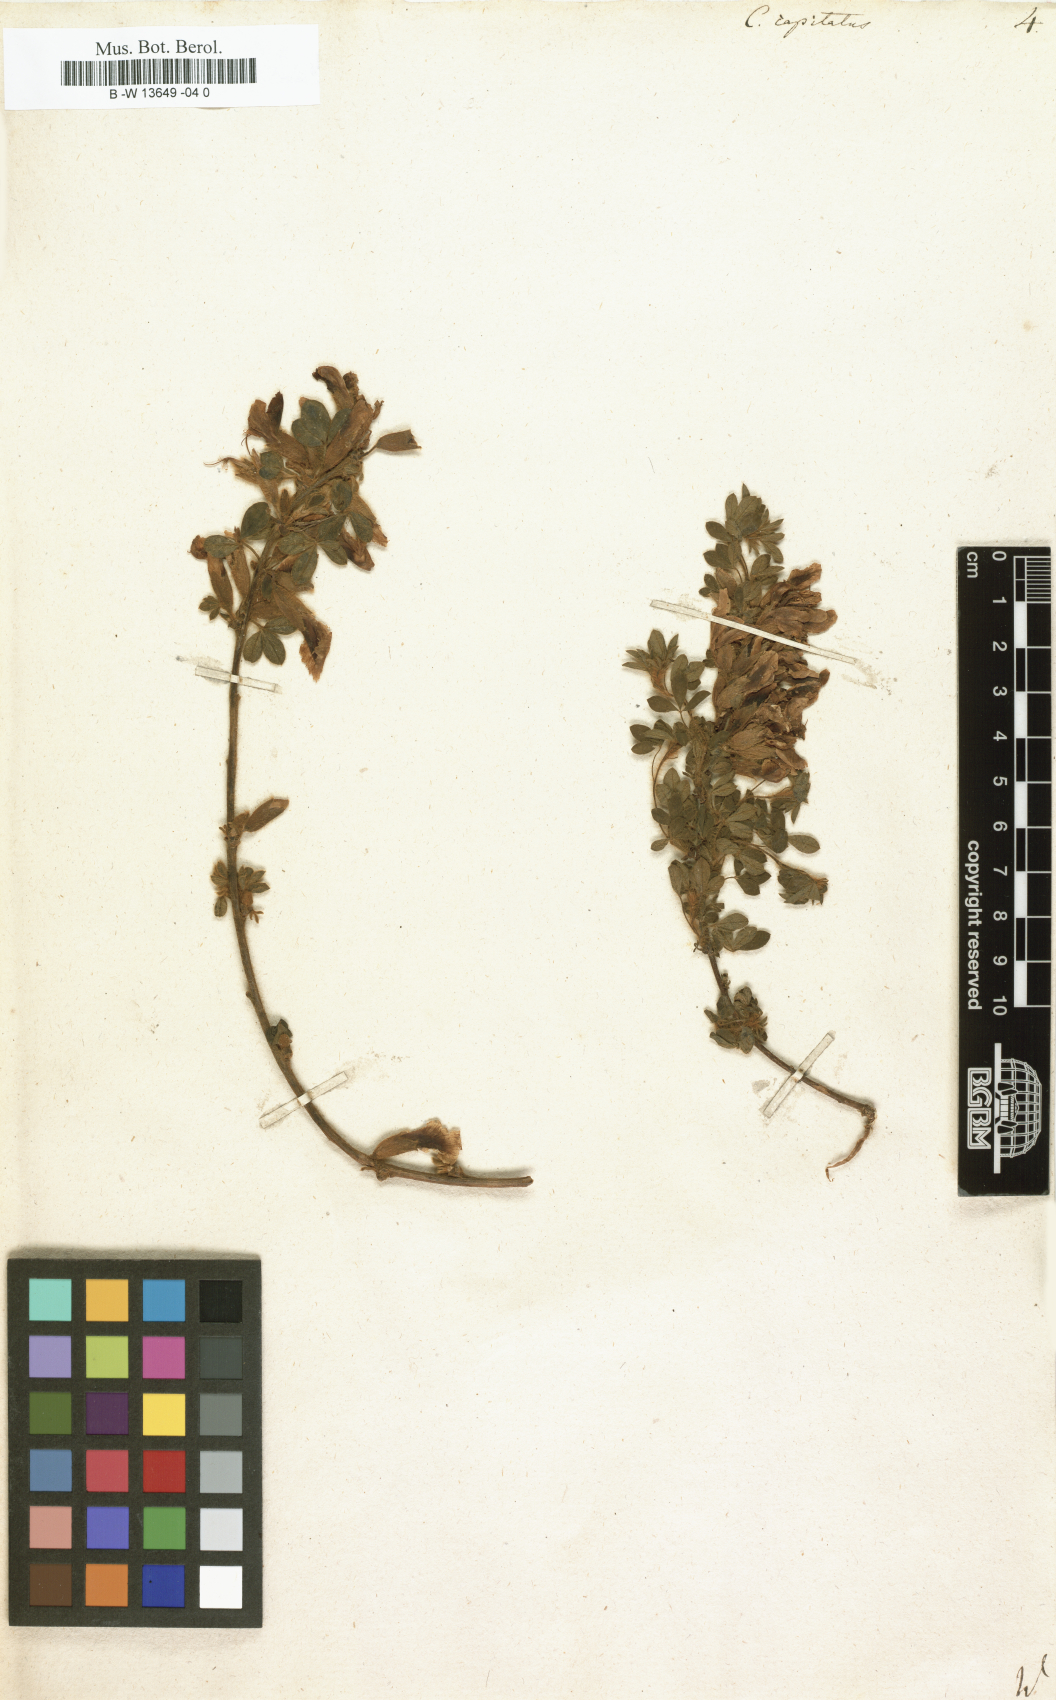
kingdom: Plantae
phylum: Tracheophyta
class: Magnoliopsida
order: Fabales
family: Fabaceae
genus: Chamaecytisus
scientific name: Chamaecytisus hirsutus
